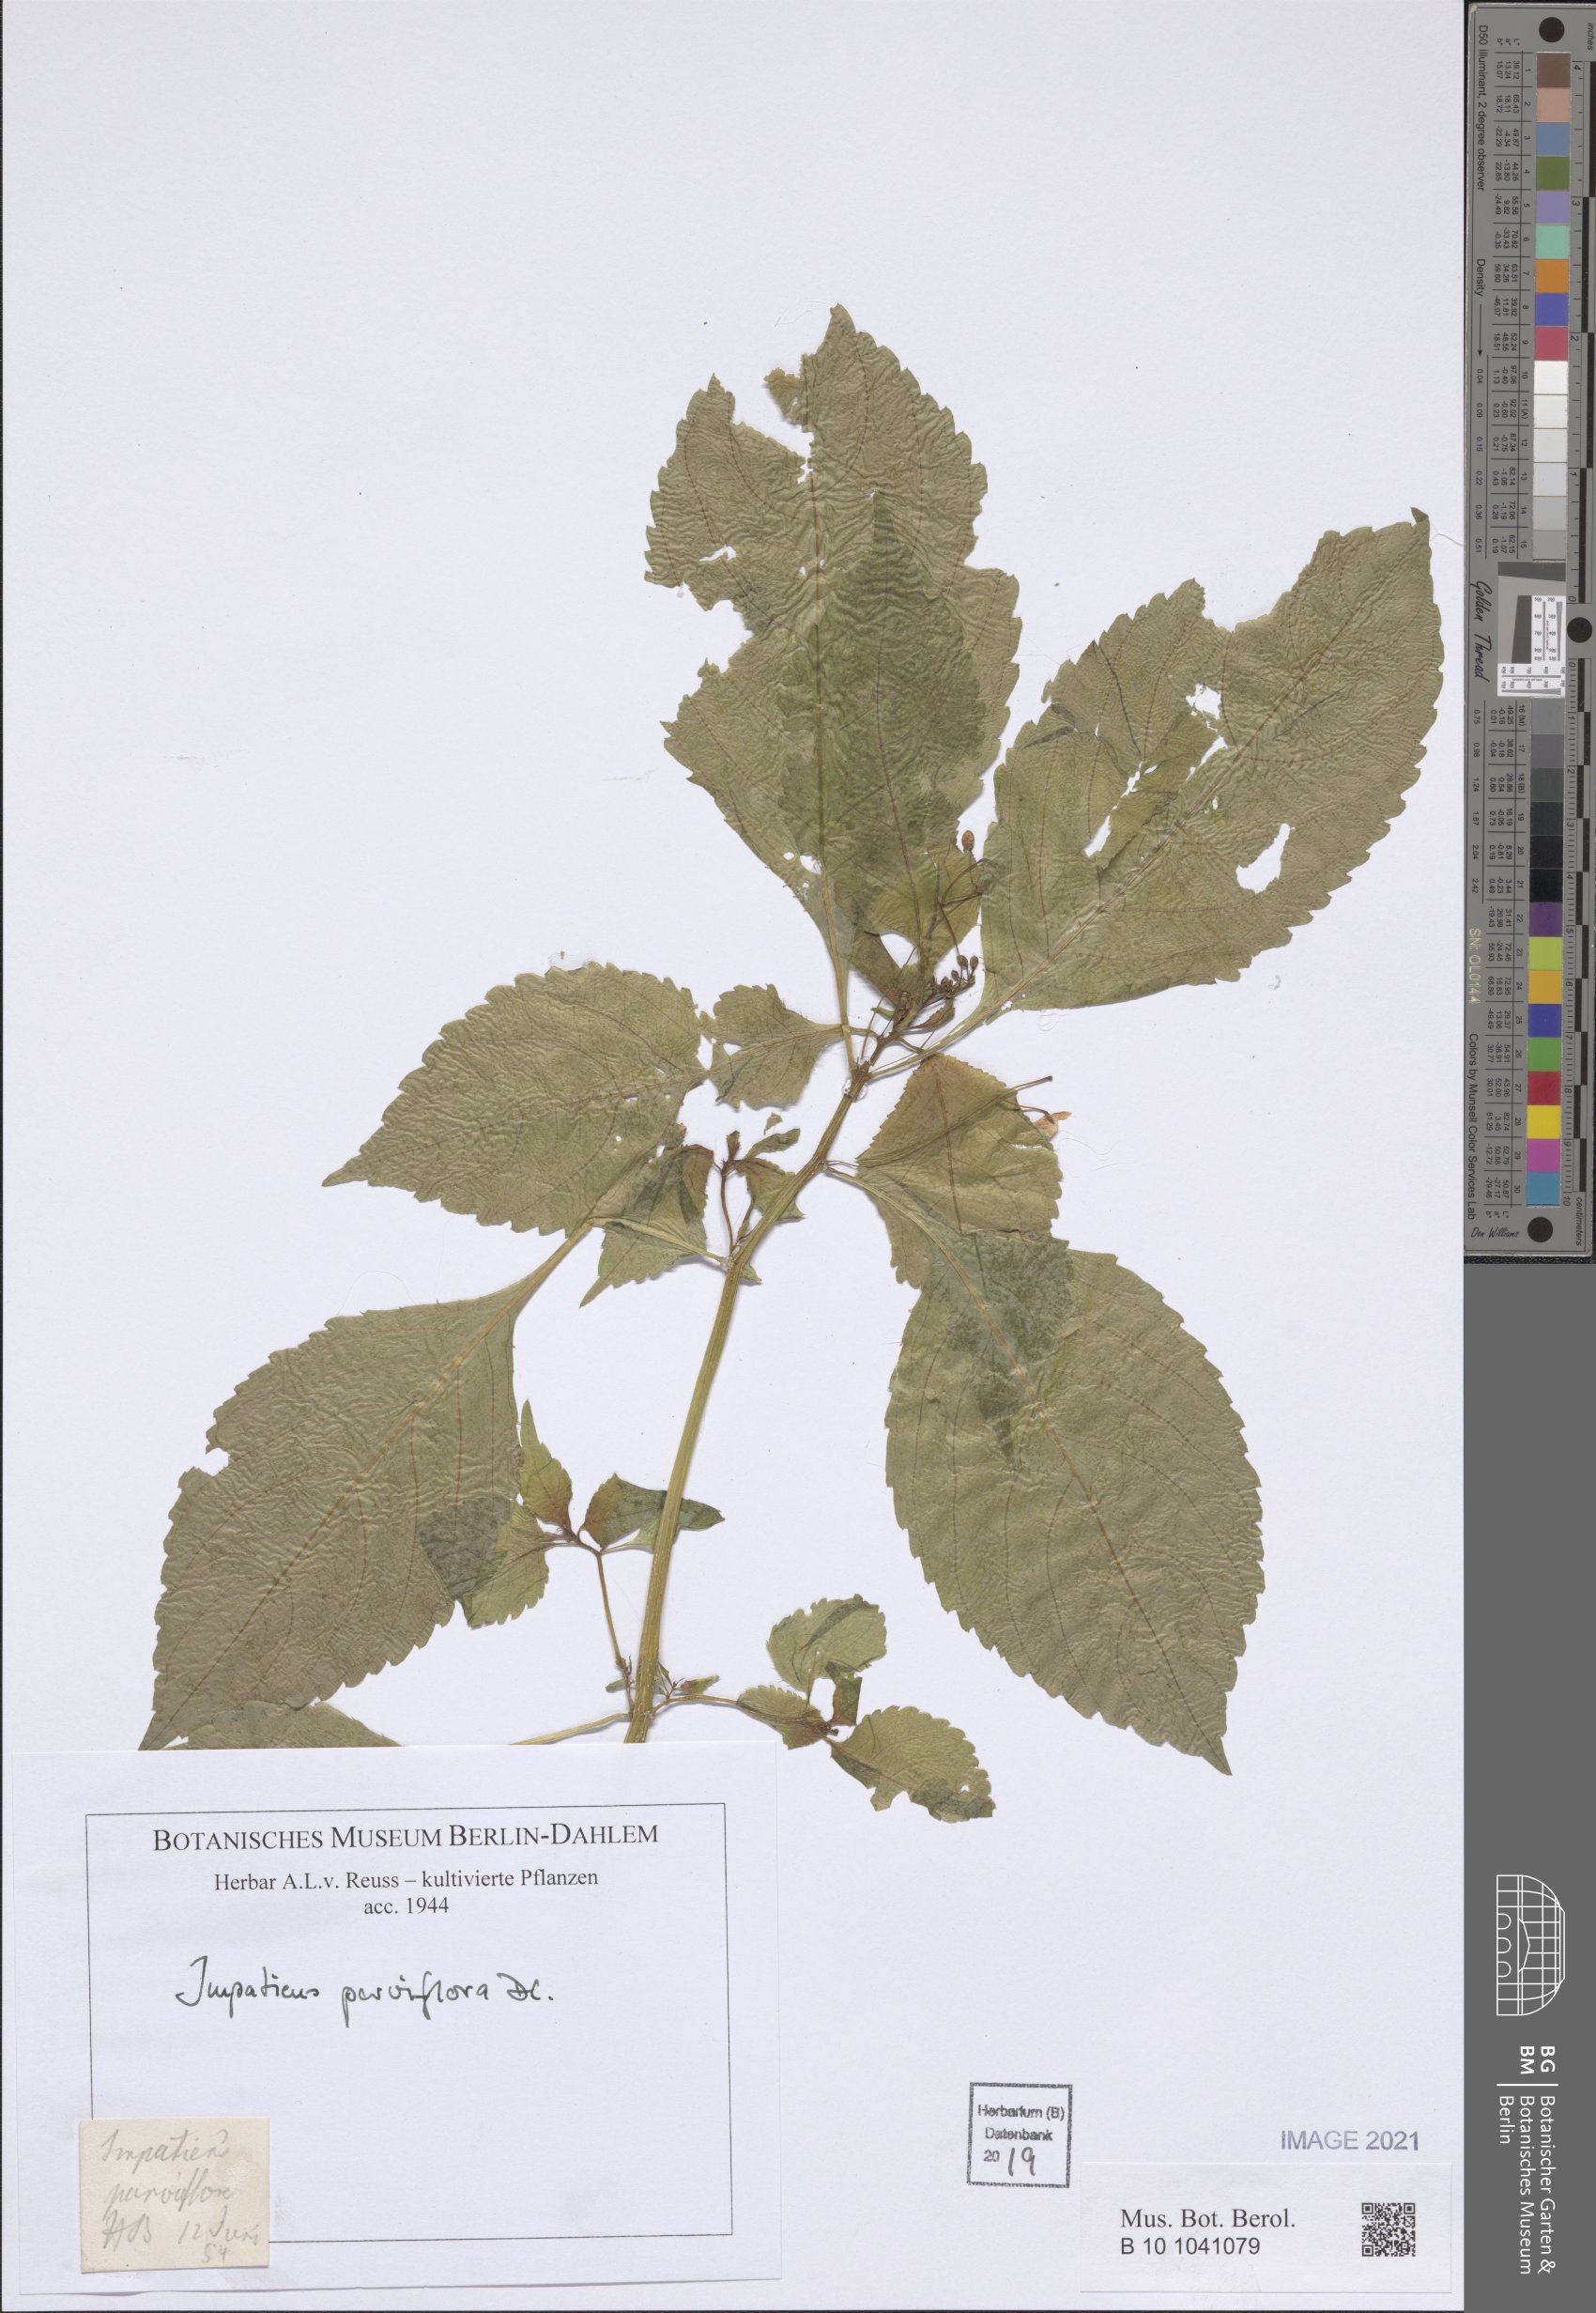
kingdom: Plantae
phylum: Tracheophyta
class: Magnoliopsida
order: Ericales
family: Balsaminaceae
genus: Impatiens
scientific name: Impatiens parviflora
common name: Small balsam
